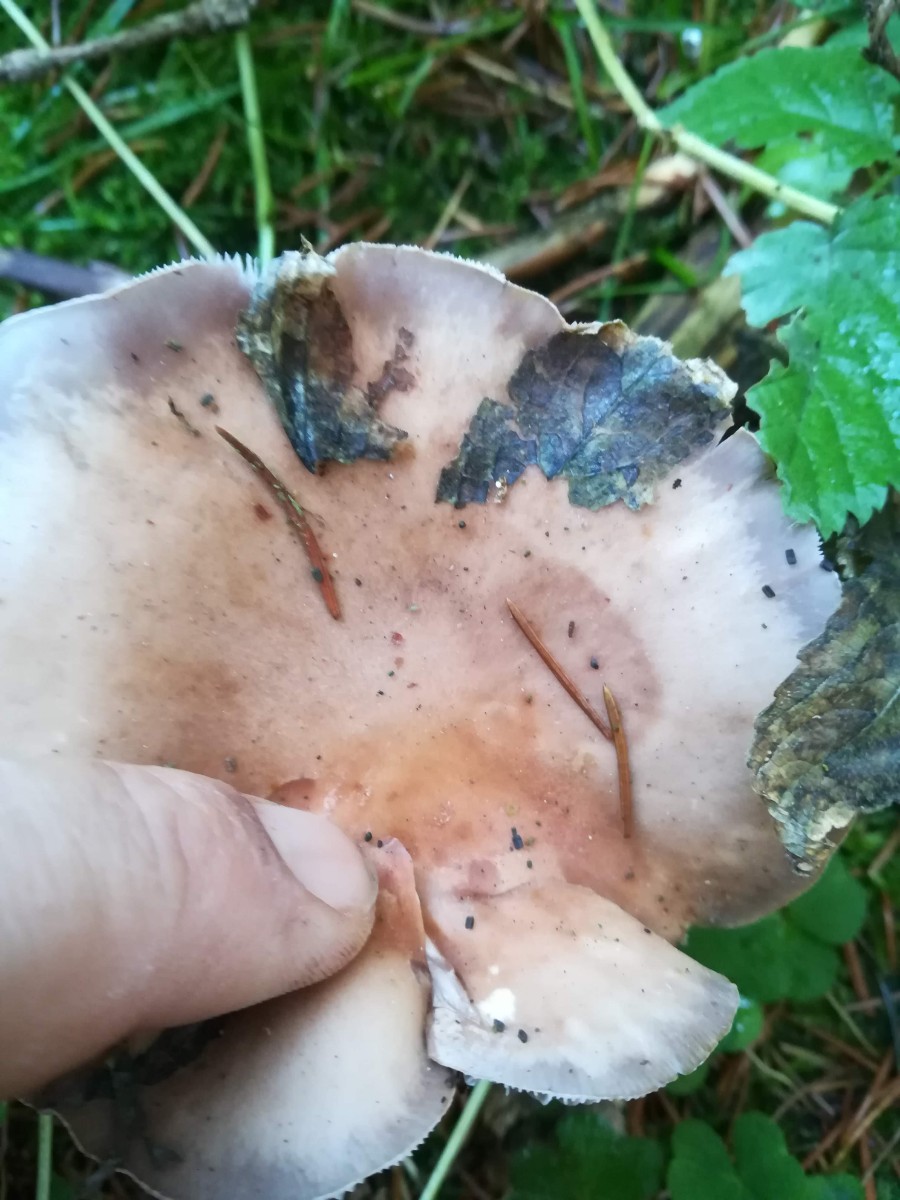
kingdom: Fungi
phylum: Basidiomycota
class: Agaricomycetes
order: Agaricales
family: Tricholomataceae
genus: Lepista
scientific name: Lepista nuda
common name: violet hekseringshat
